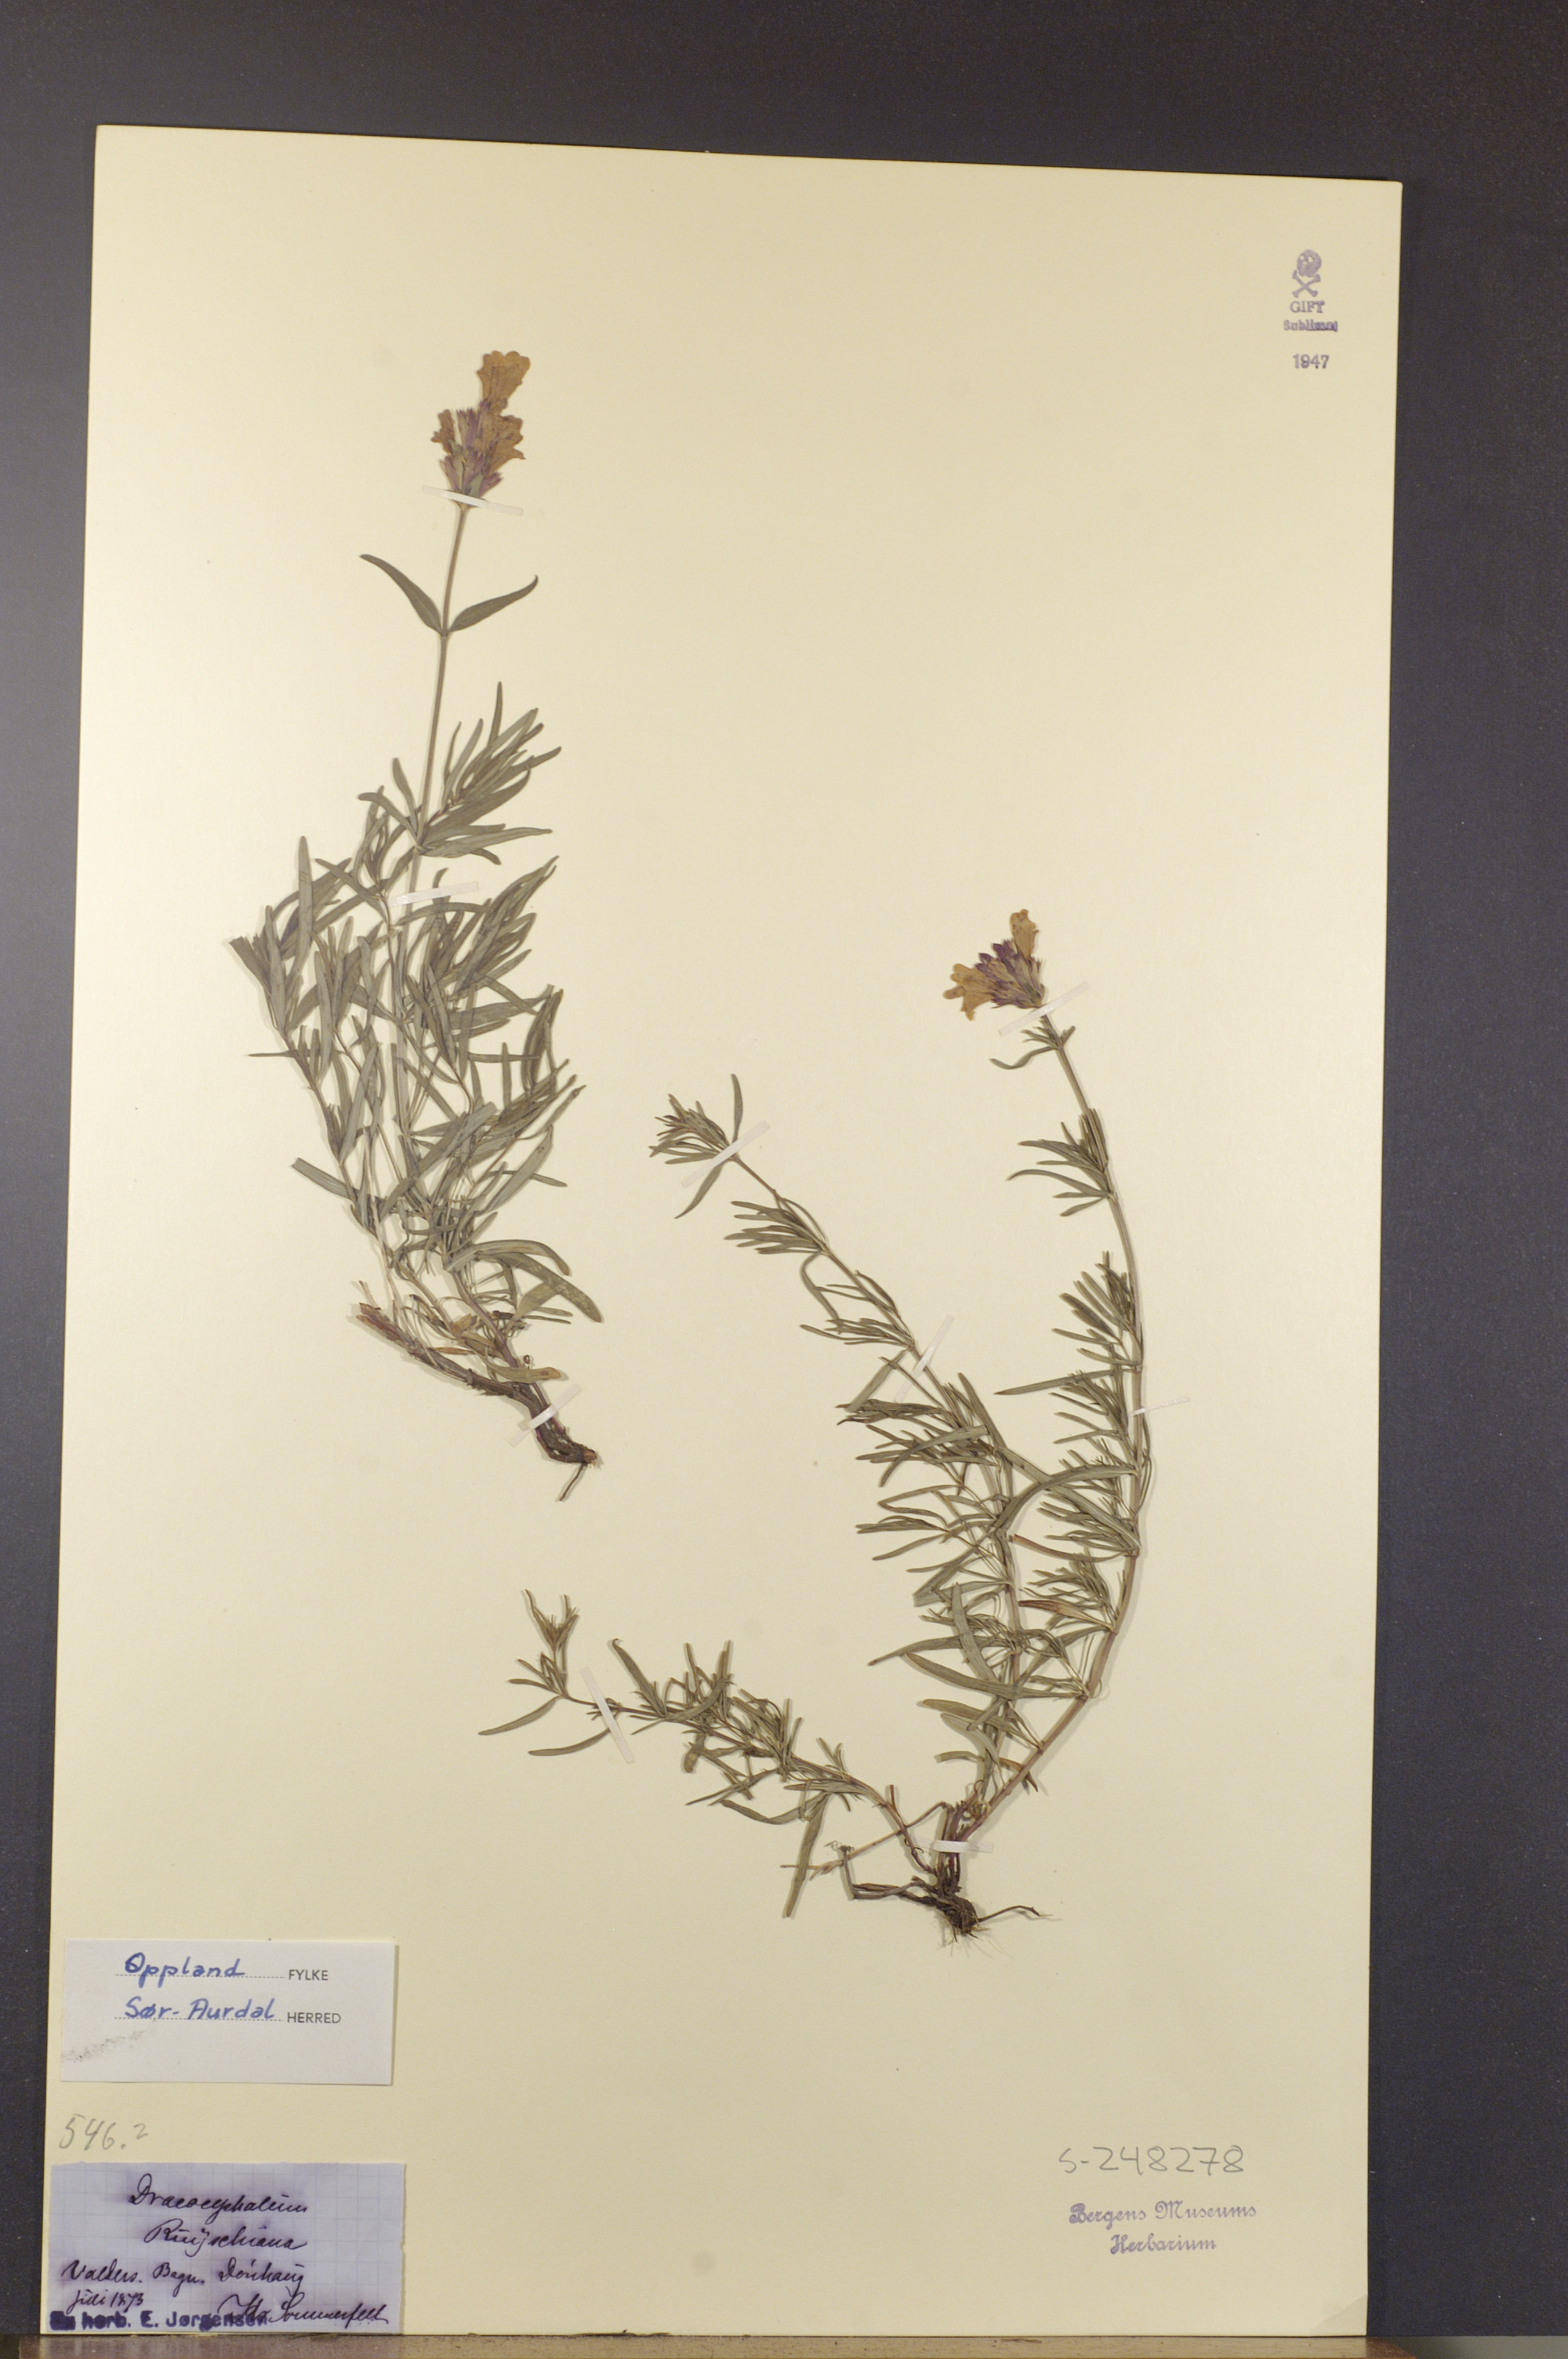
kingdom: Plantae
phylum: Tracheophyta
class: Magnoliopsida
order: Lamiales
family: Lamiaceae
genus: Dracocephalum
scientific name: Dracocephalum ruyschiana
